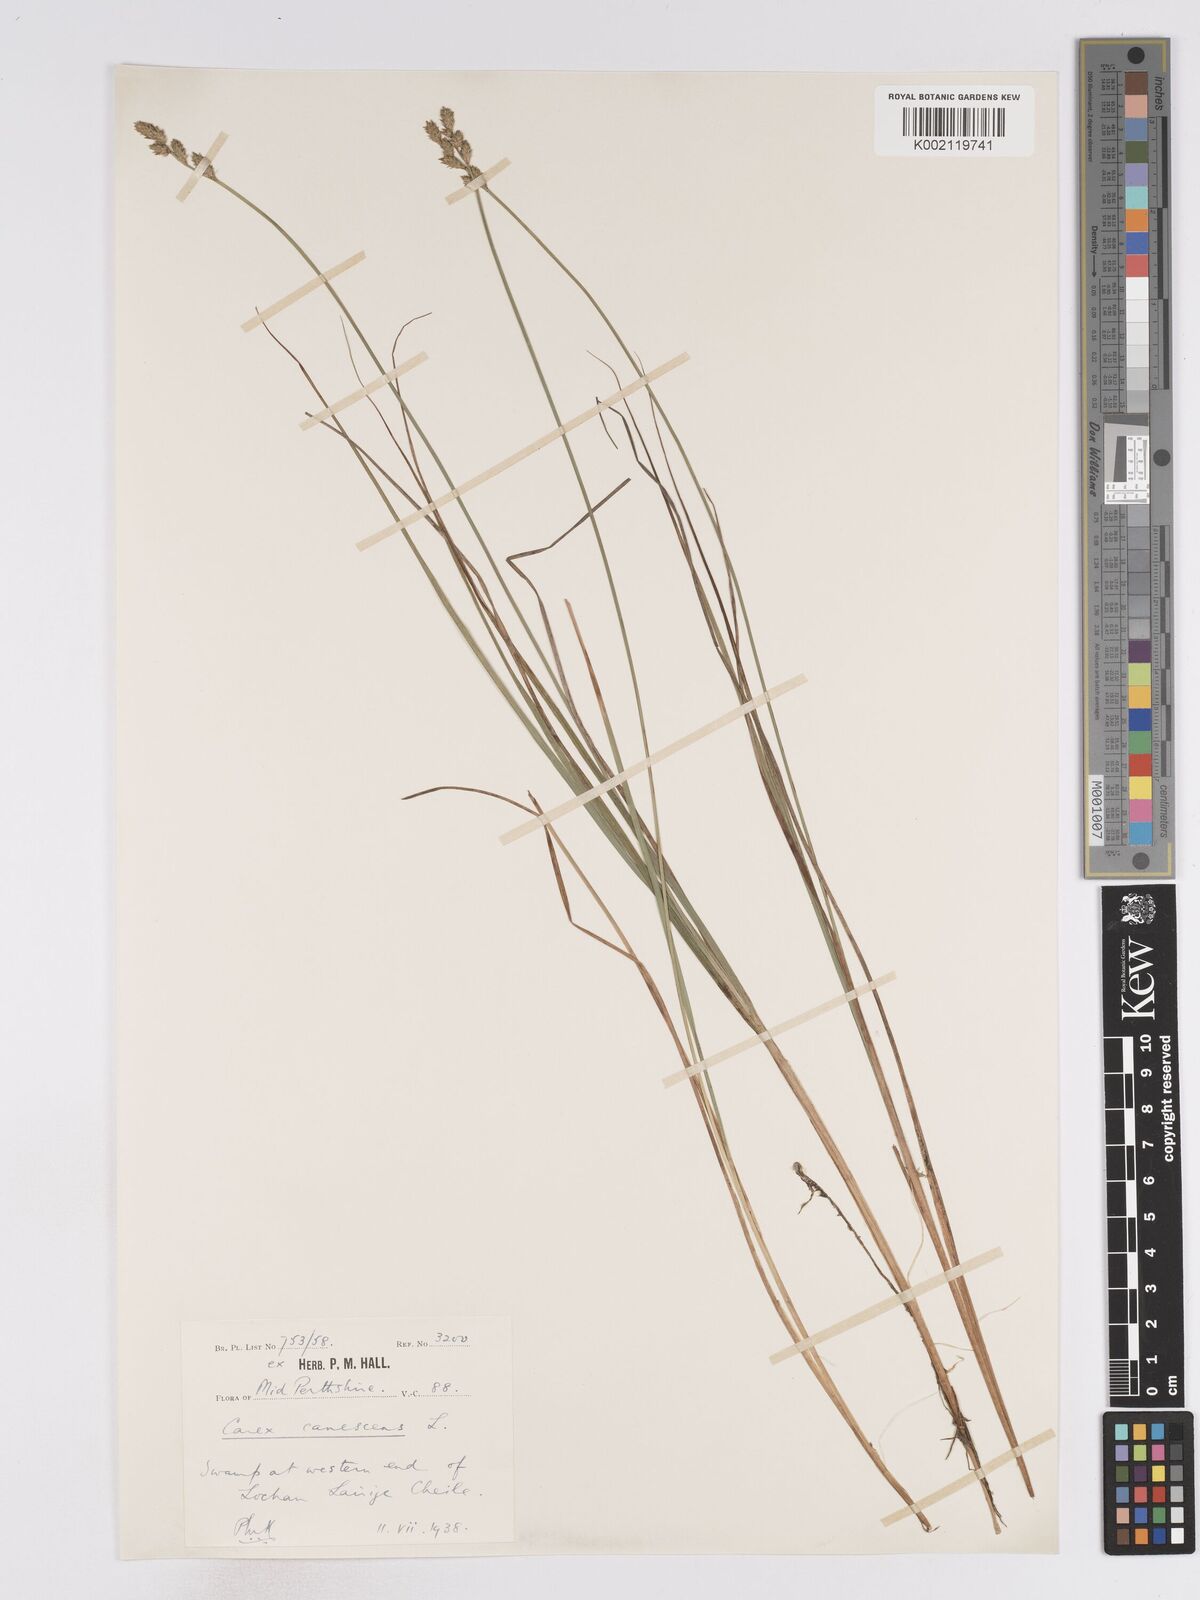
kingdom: Plantae
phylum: Tracheophyta
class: Liliopsida
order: Poales
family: Cyperaceae
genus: Carex
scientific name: Carex curta
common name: White sedge
